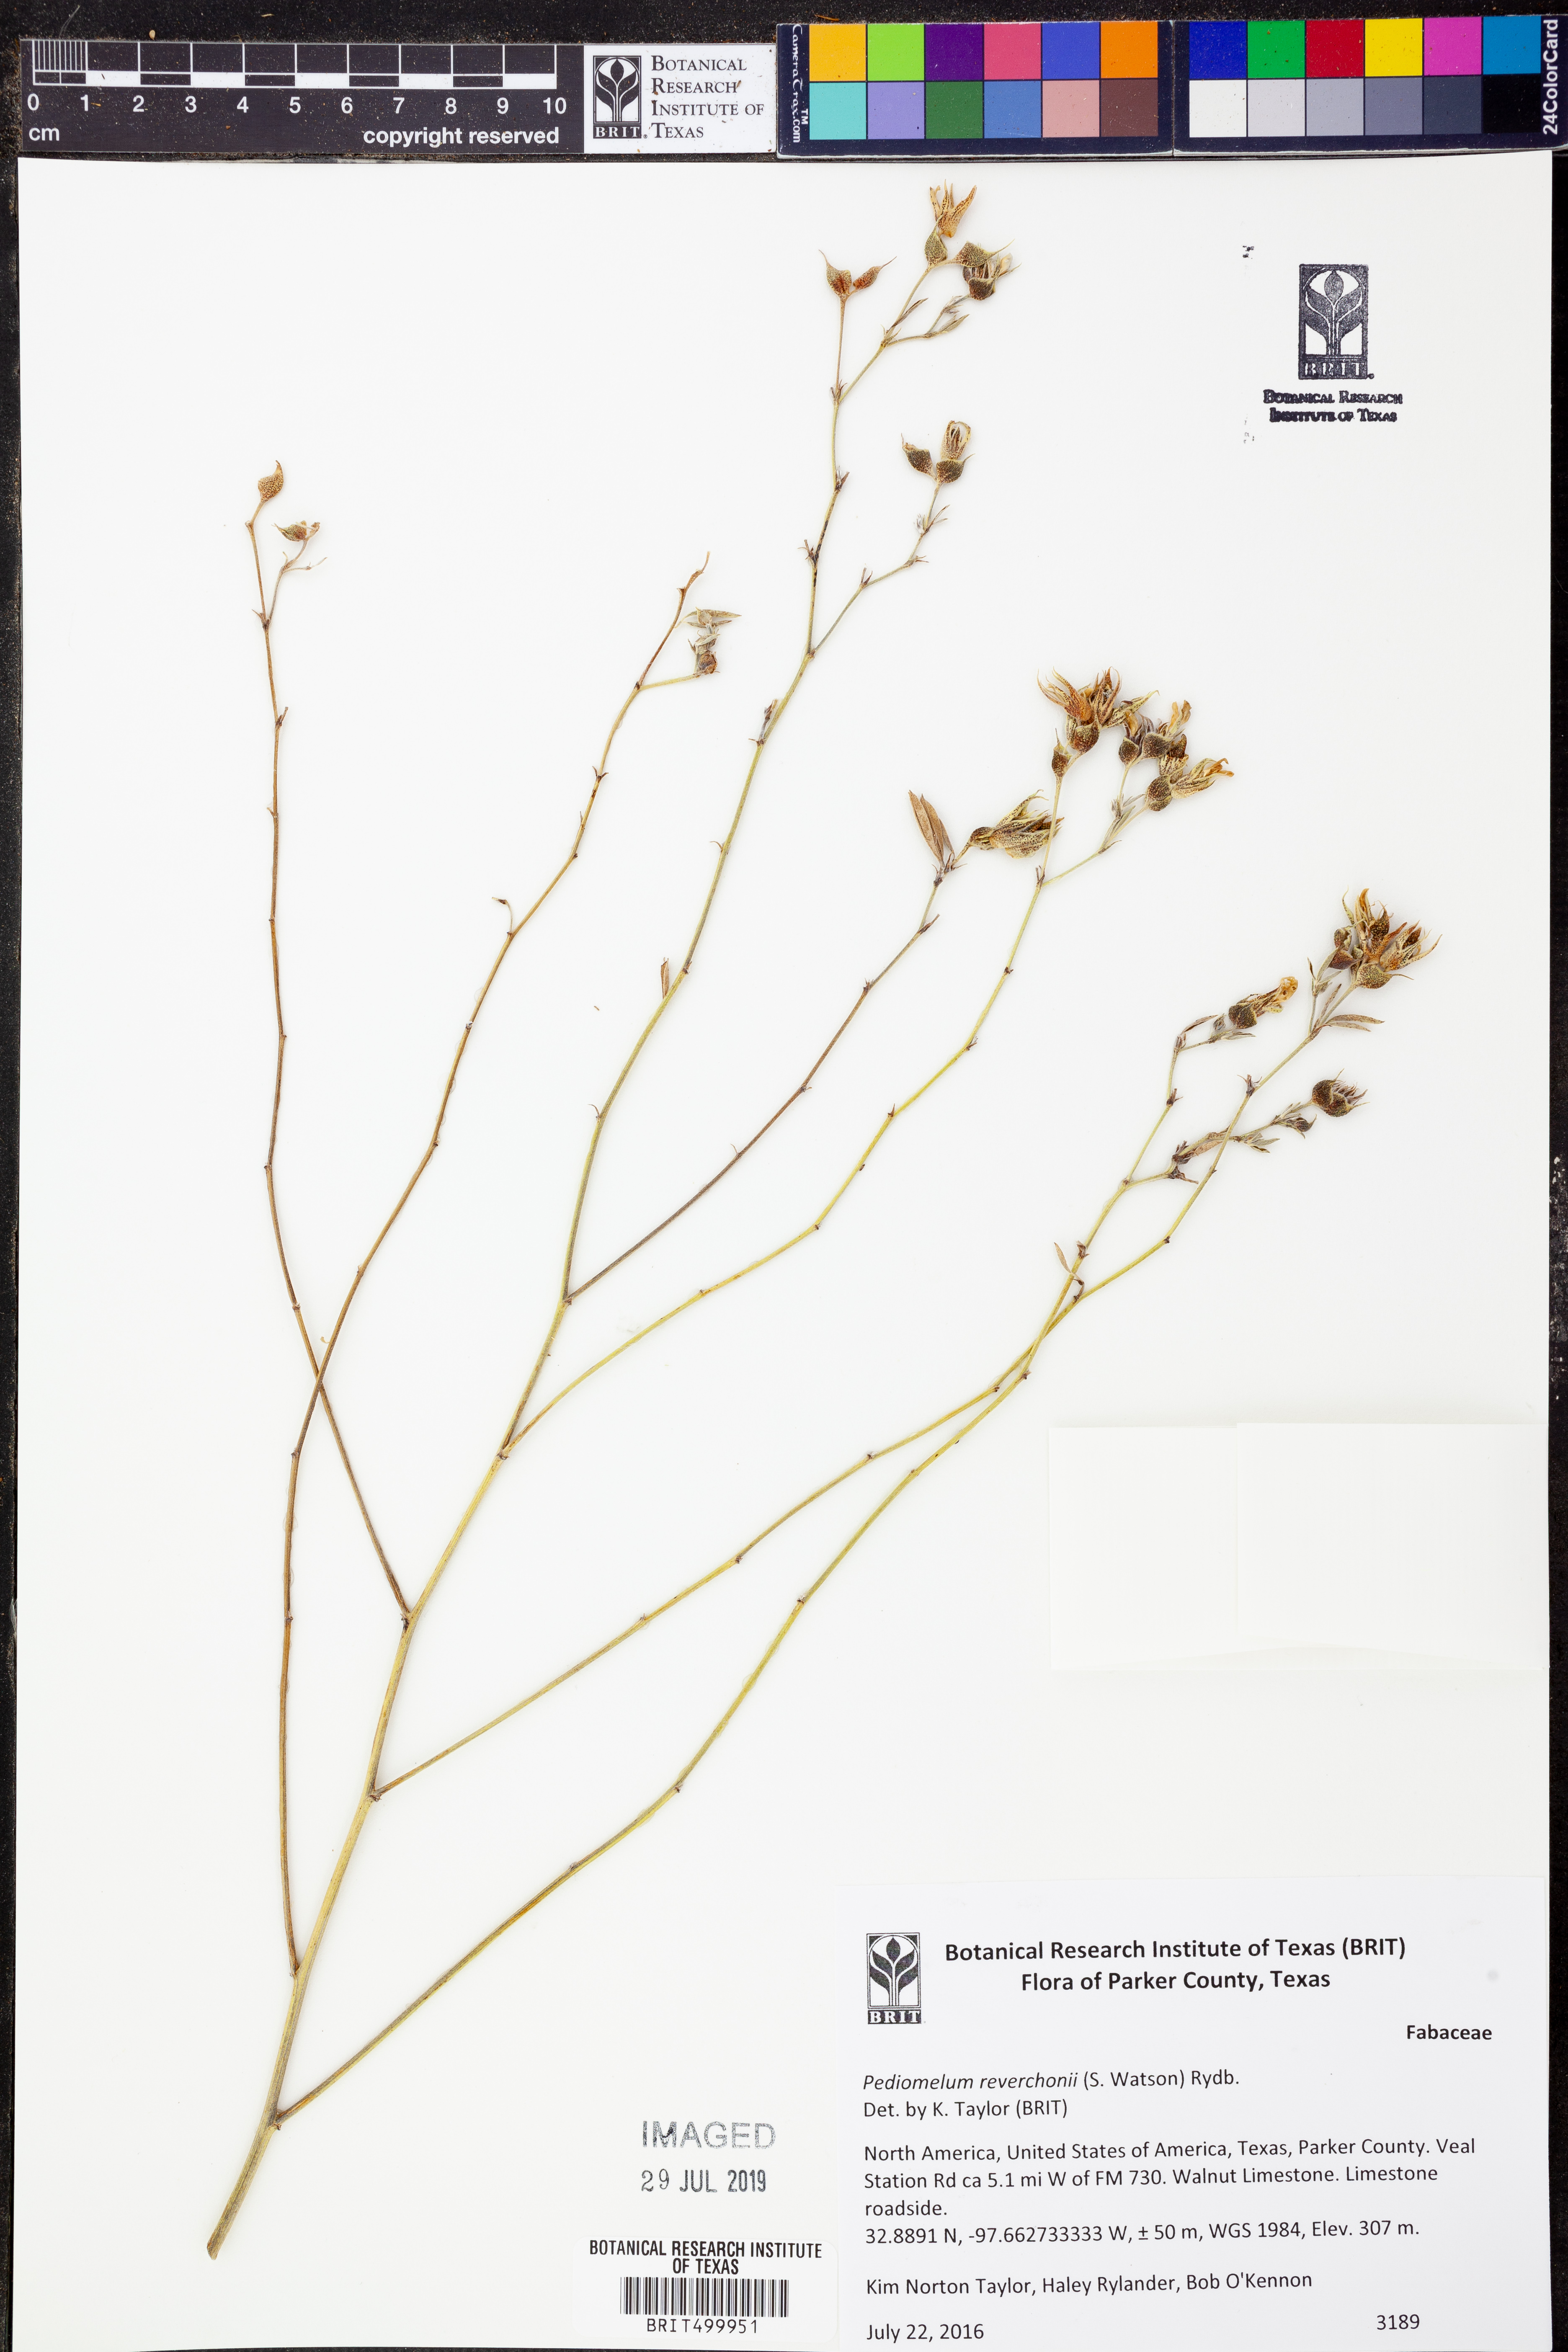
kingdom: Plantae
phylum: Tracheophyta
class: Magnoliopsida
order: Fabales
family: Fabaceae
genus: Pediomelum
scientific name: Pediomelum reverchonii
